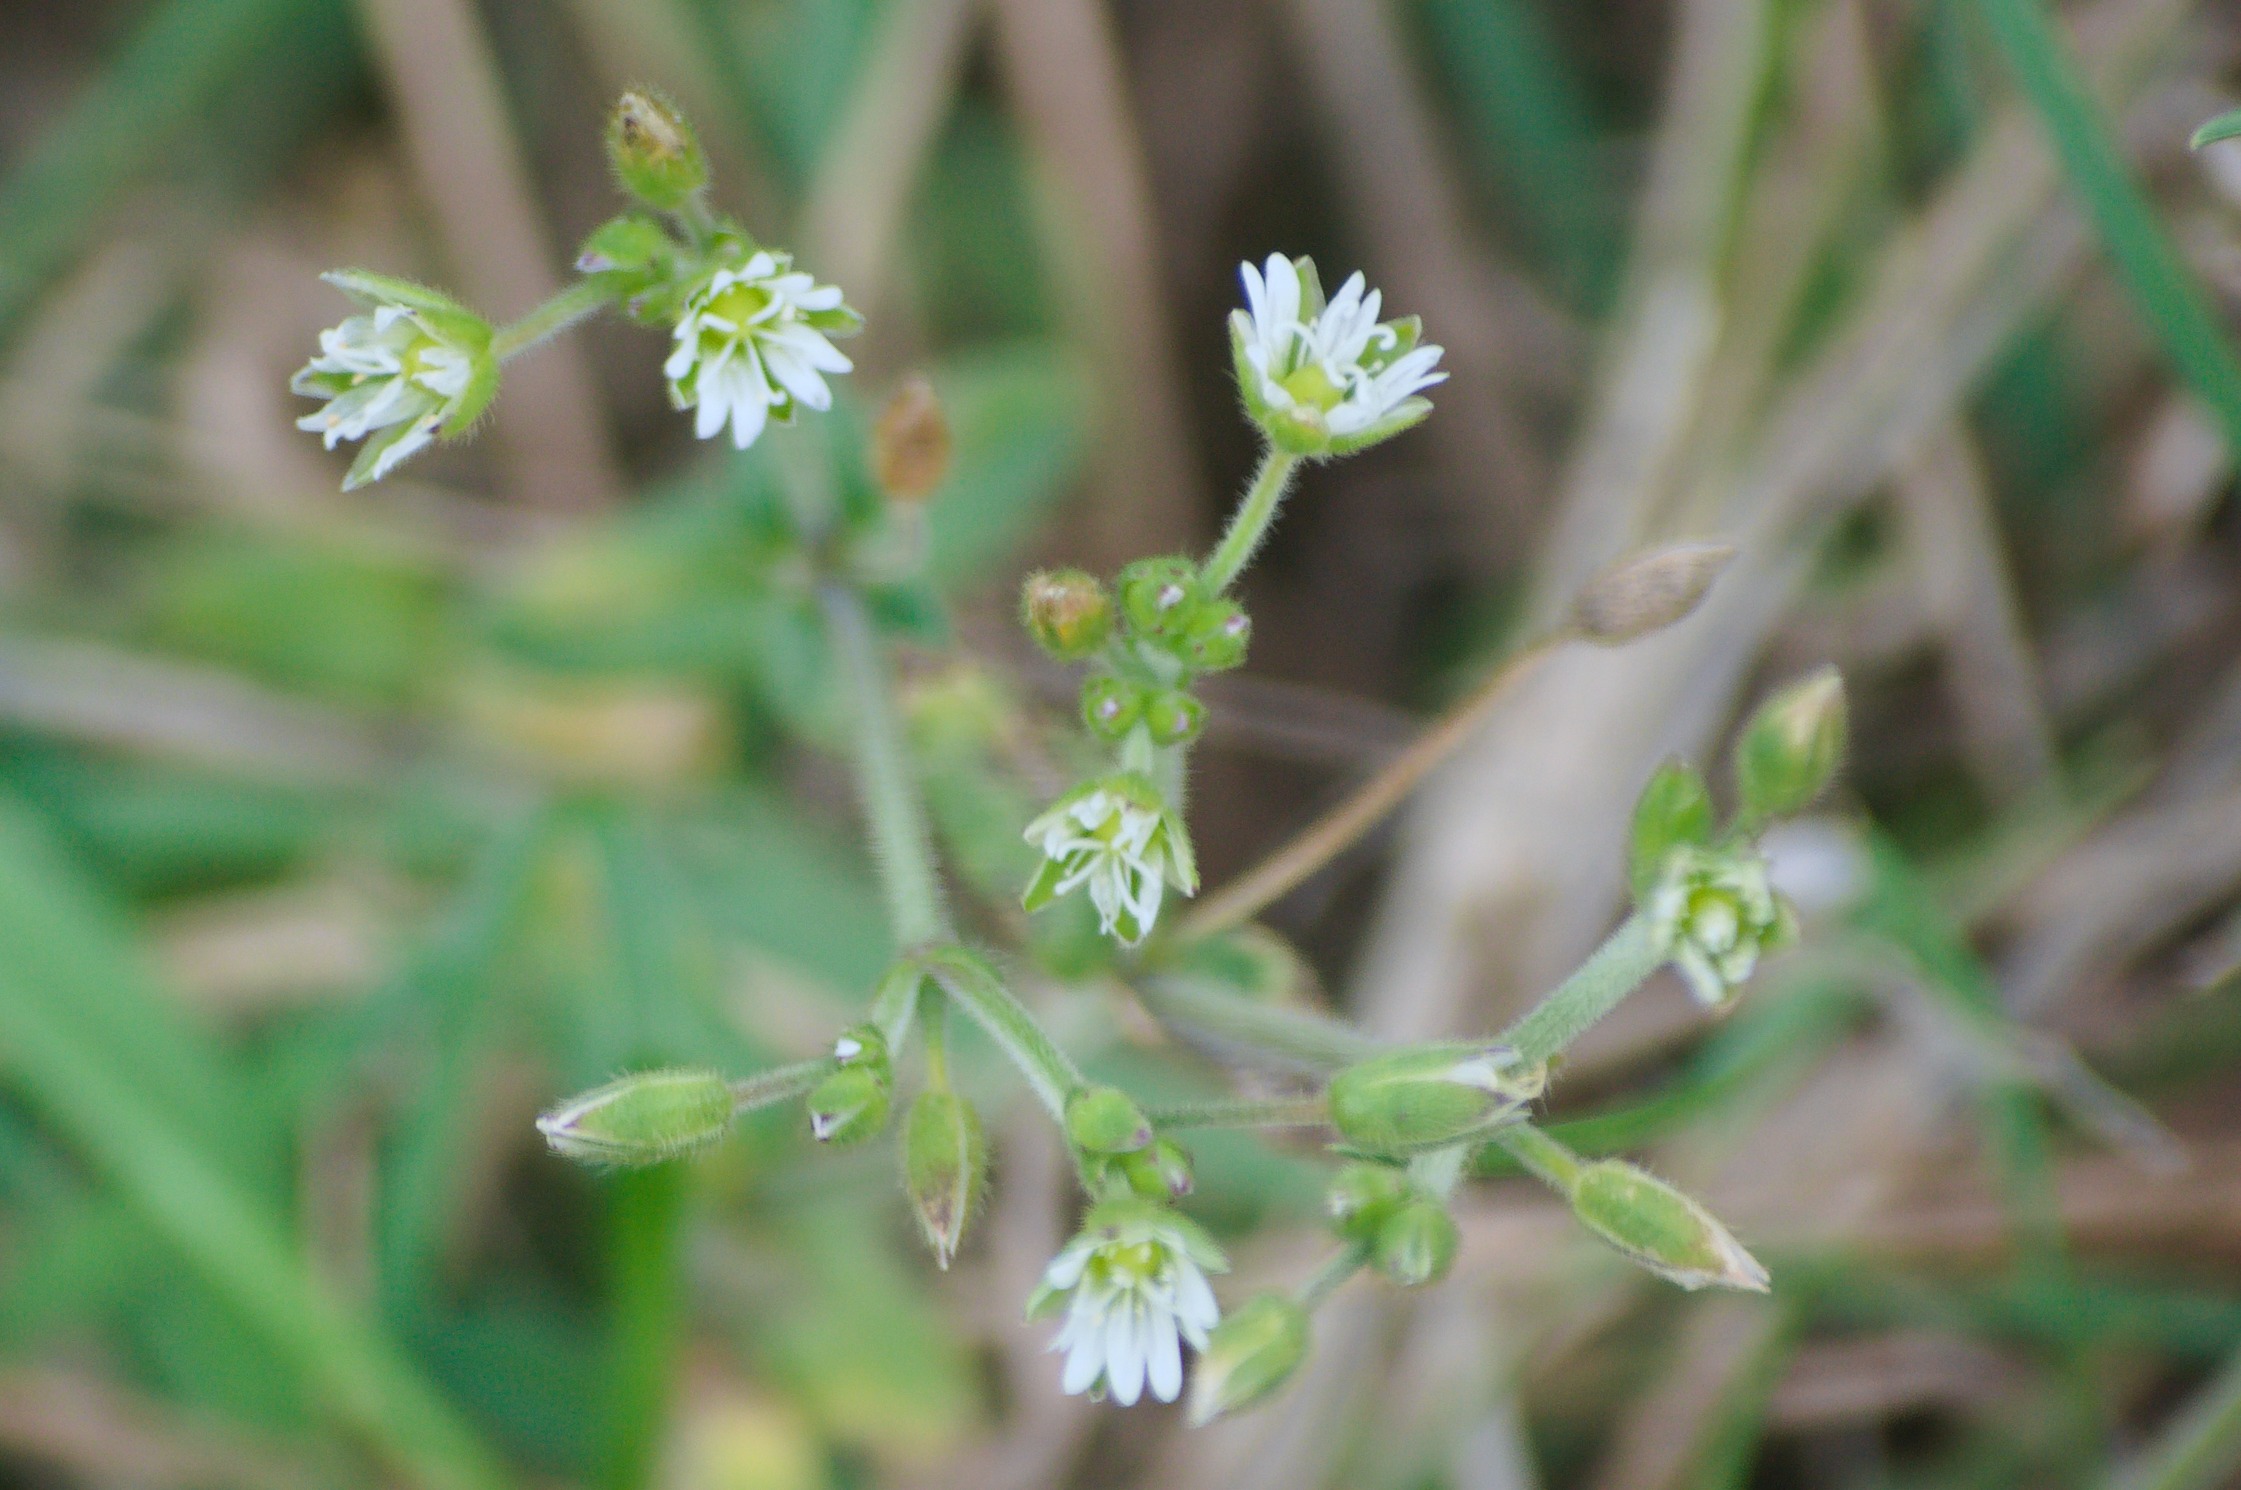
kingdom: Plantae
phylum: Tracheophyta
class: Magnoliopsida
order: Caryophyllales
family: Caryophyllaceae
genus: Cerastium
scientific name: Cerastium fontanum
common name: Almindelig hønsetarm
